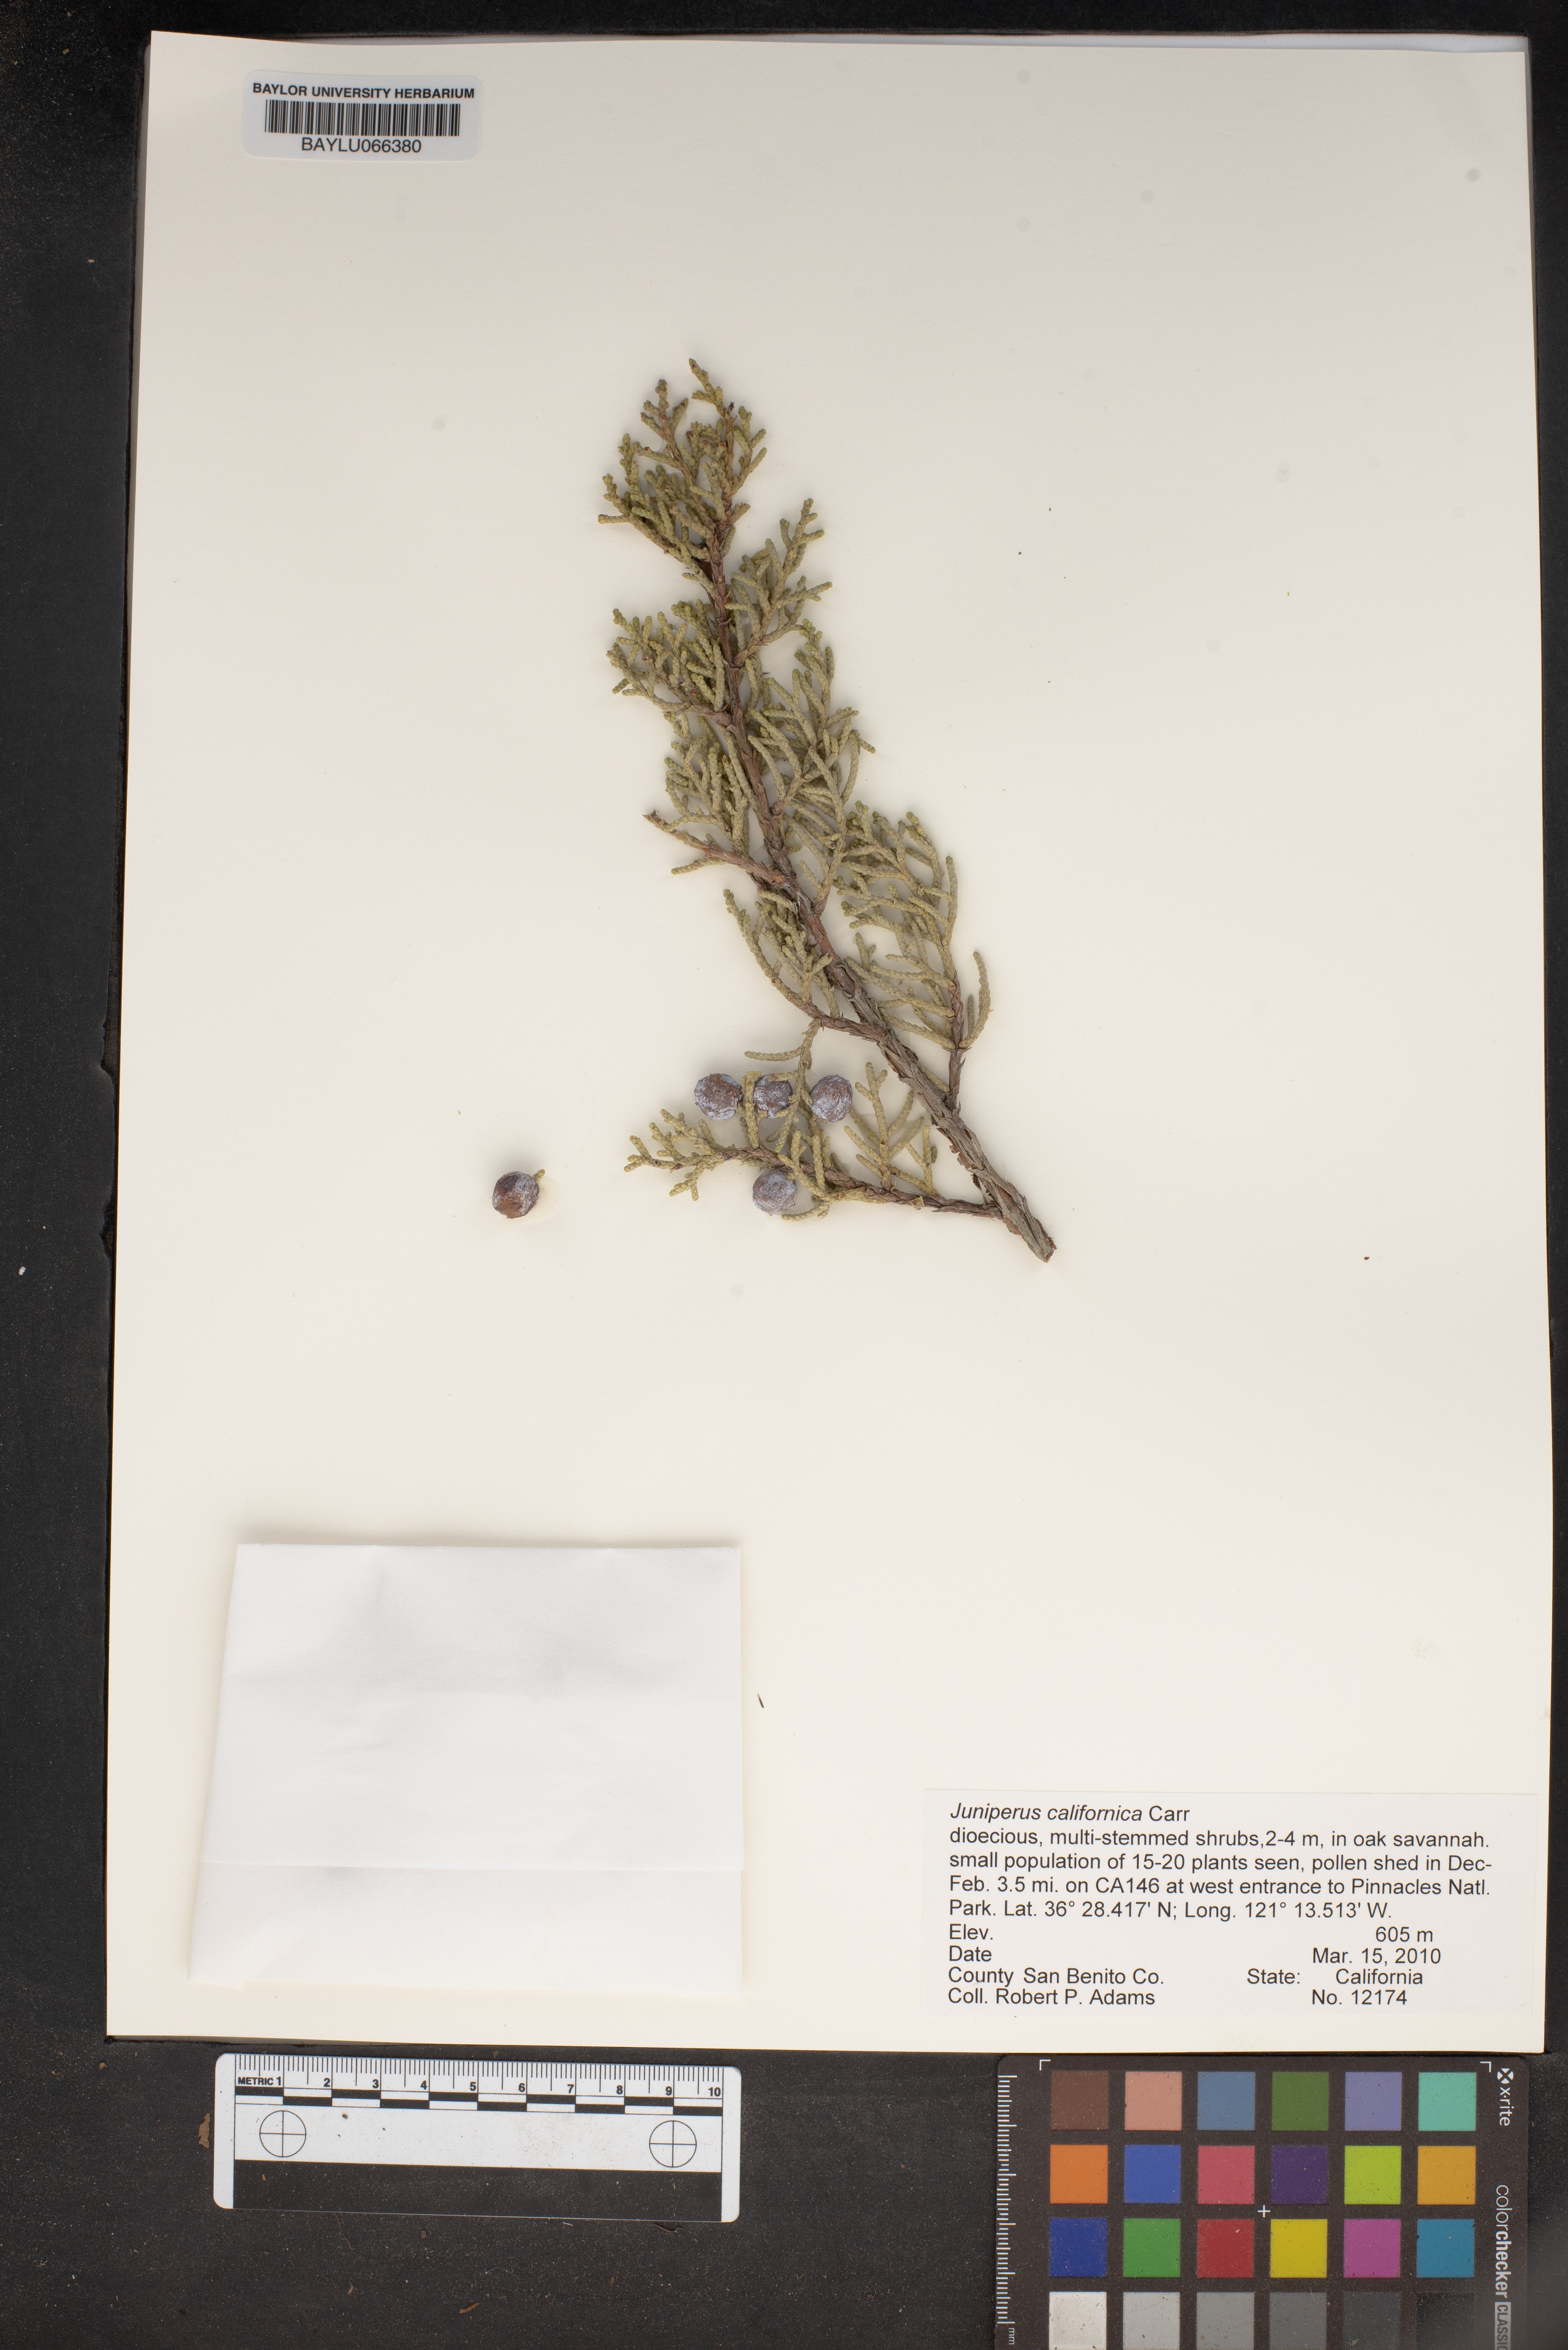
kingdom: Plantae
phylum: Tracheophyta
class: Pinopsida
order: Pinales
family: Cupressaceae
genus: Juniperus
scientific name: Juniperus californica
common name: California juniper
